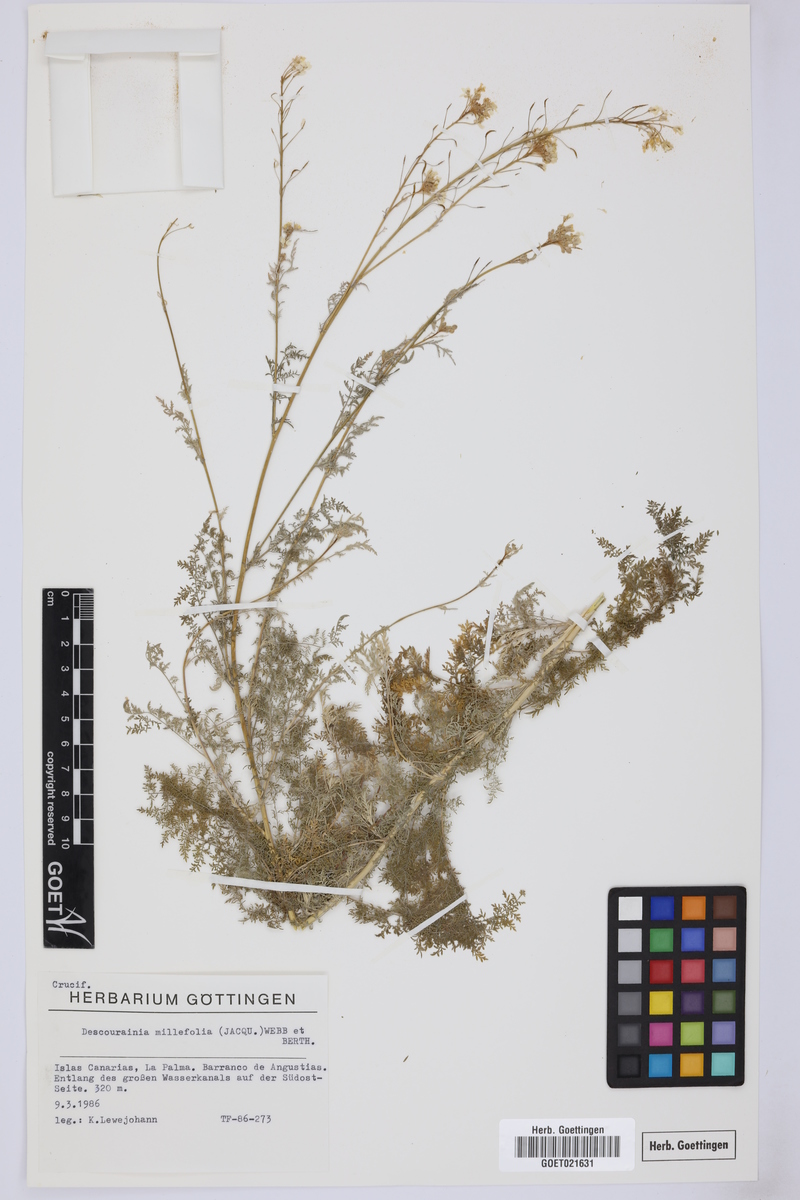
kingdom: Plantae
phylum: Tracheophyta
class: Magnoliopsida
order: Brassicales
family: Brassicaceae
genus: Descurainia
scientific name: Descurainia millefolia
